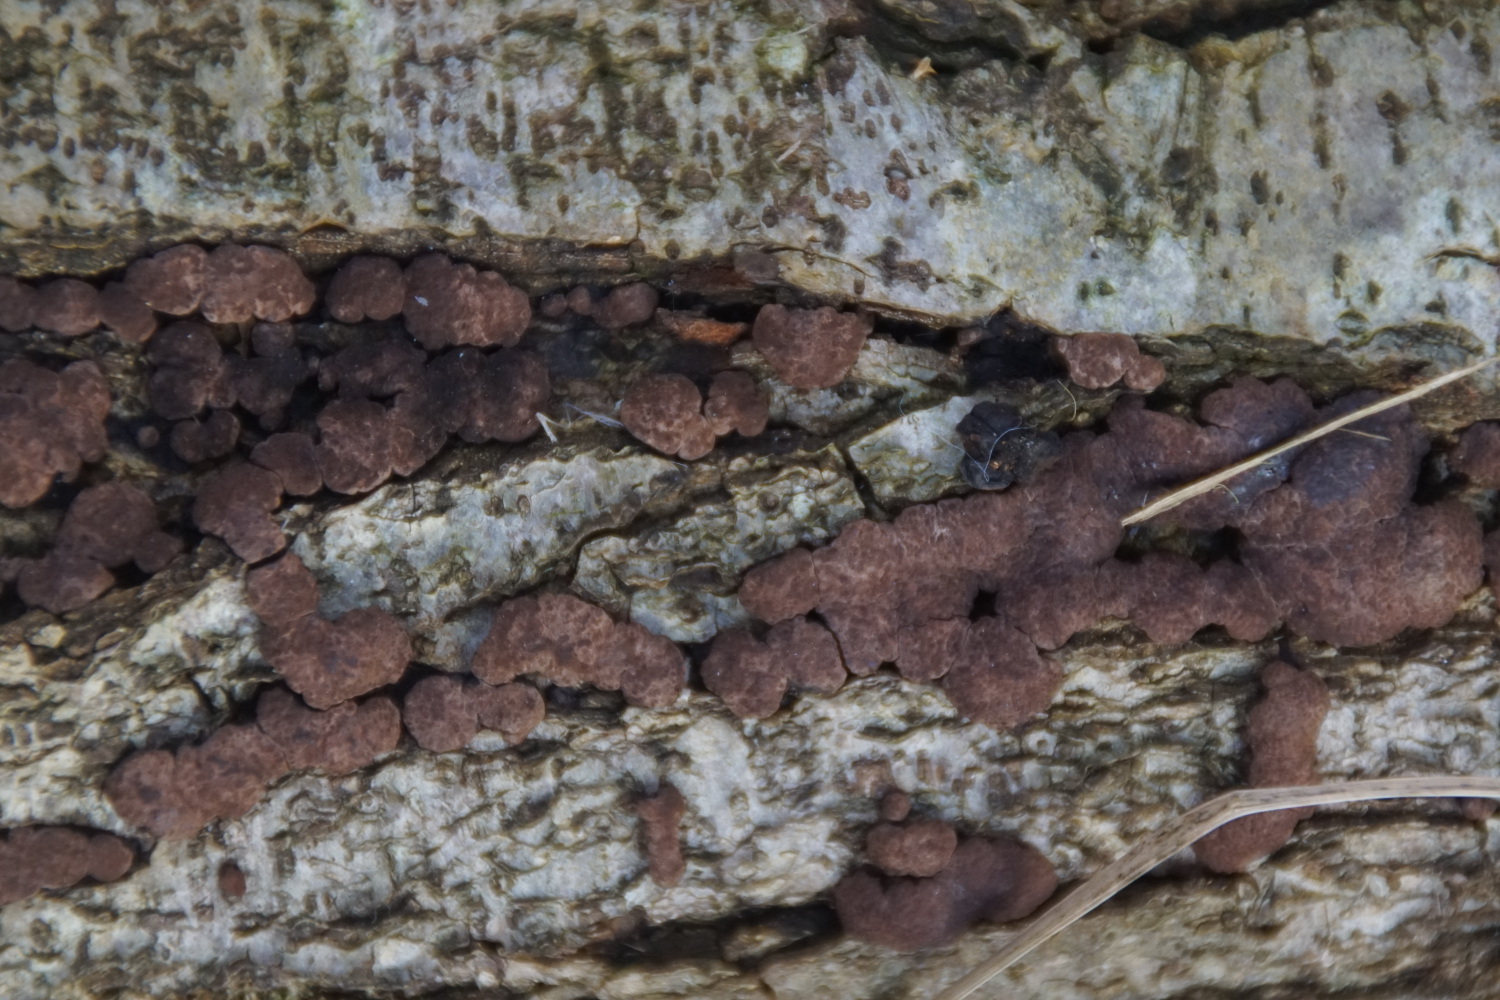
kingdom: Fungi
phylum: Ascomycota
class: Sordariomycetes
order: Xylariales
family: Hypoxylaceae
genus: Jackrogersella
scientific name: Jackrogersella minutella
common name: ege-kulbær
